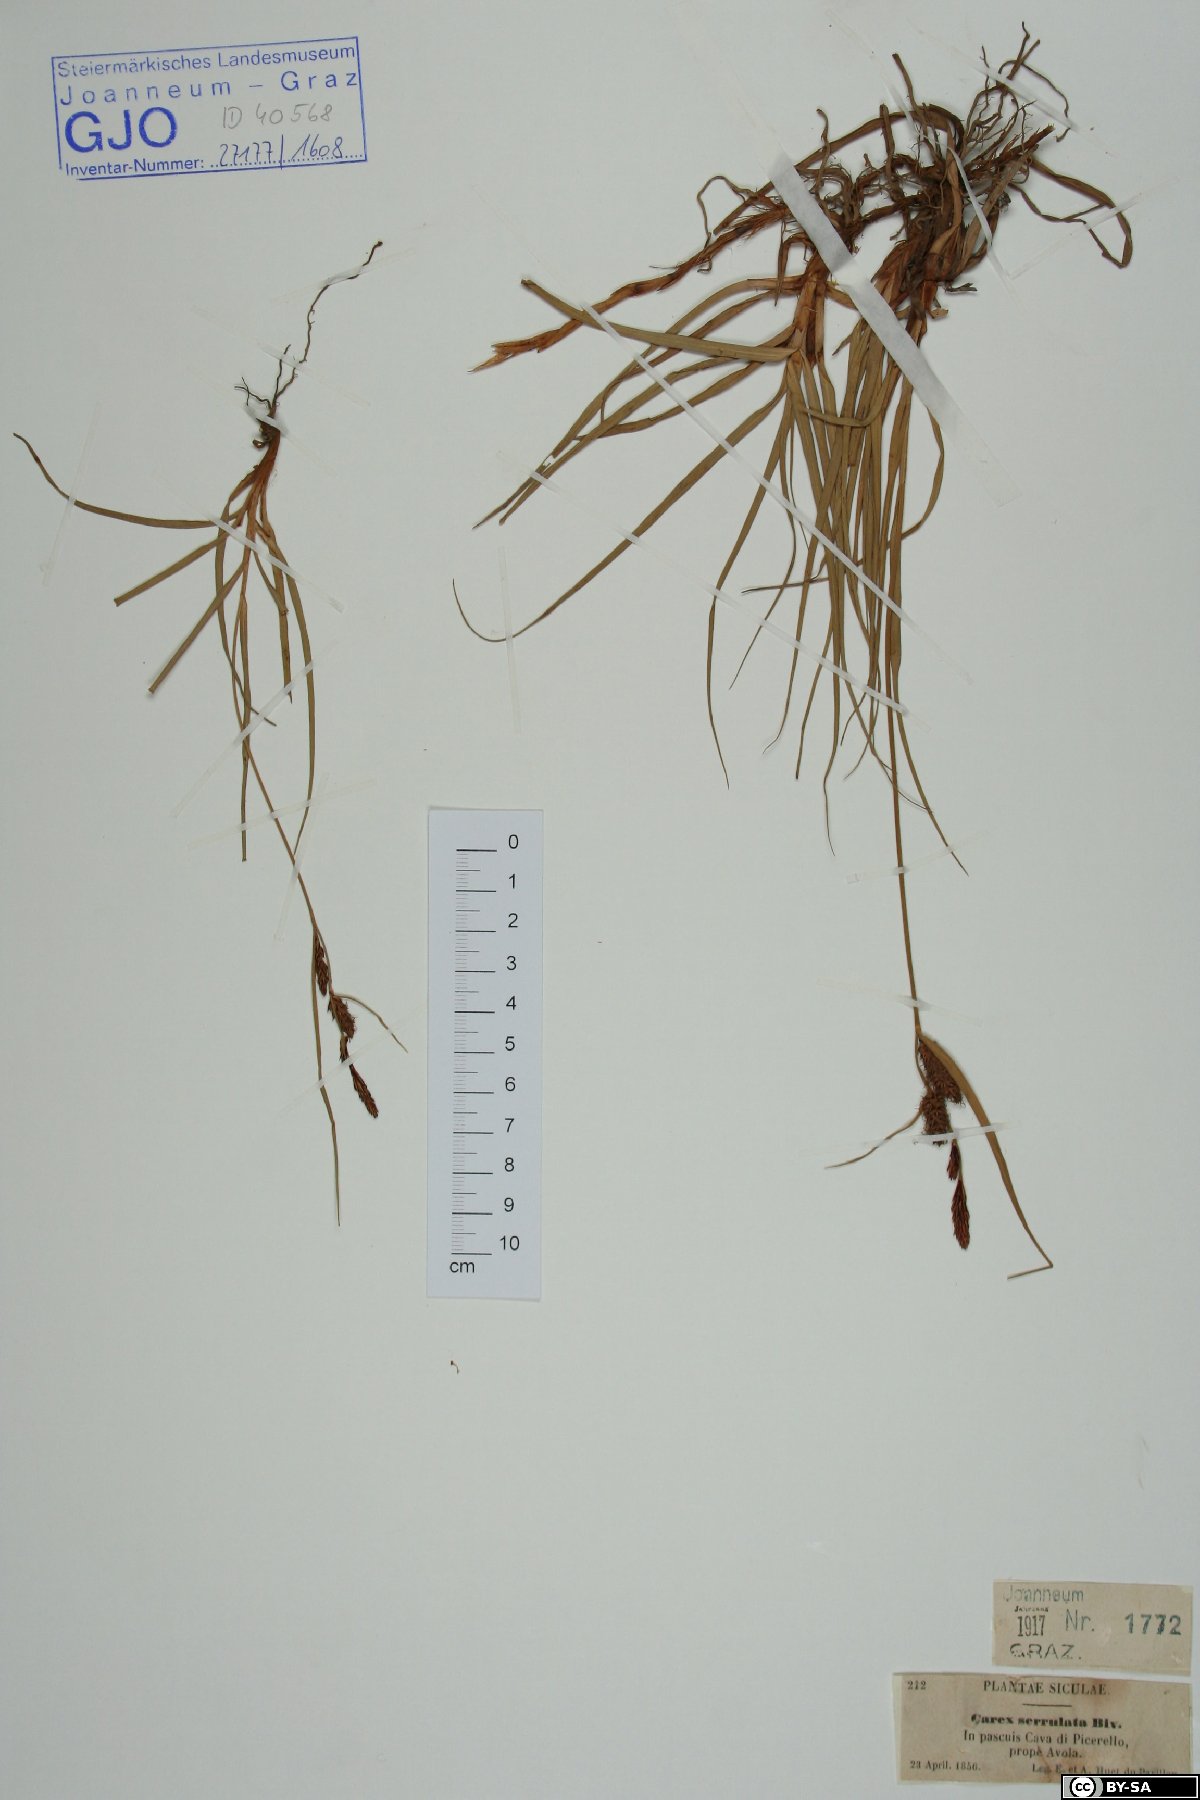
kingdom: Plantae
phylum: Tracheophyta
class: Liliopsida
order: Poales
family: Cyperaceae
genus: Carex
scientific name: Carex flacca
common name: Glaucous sedge
